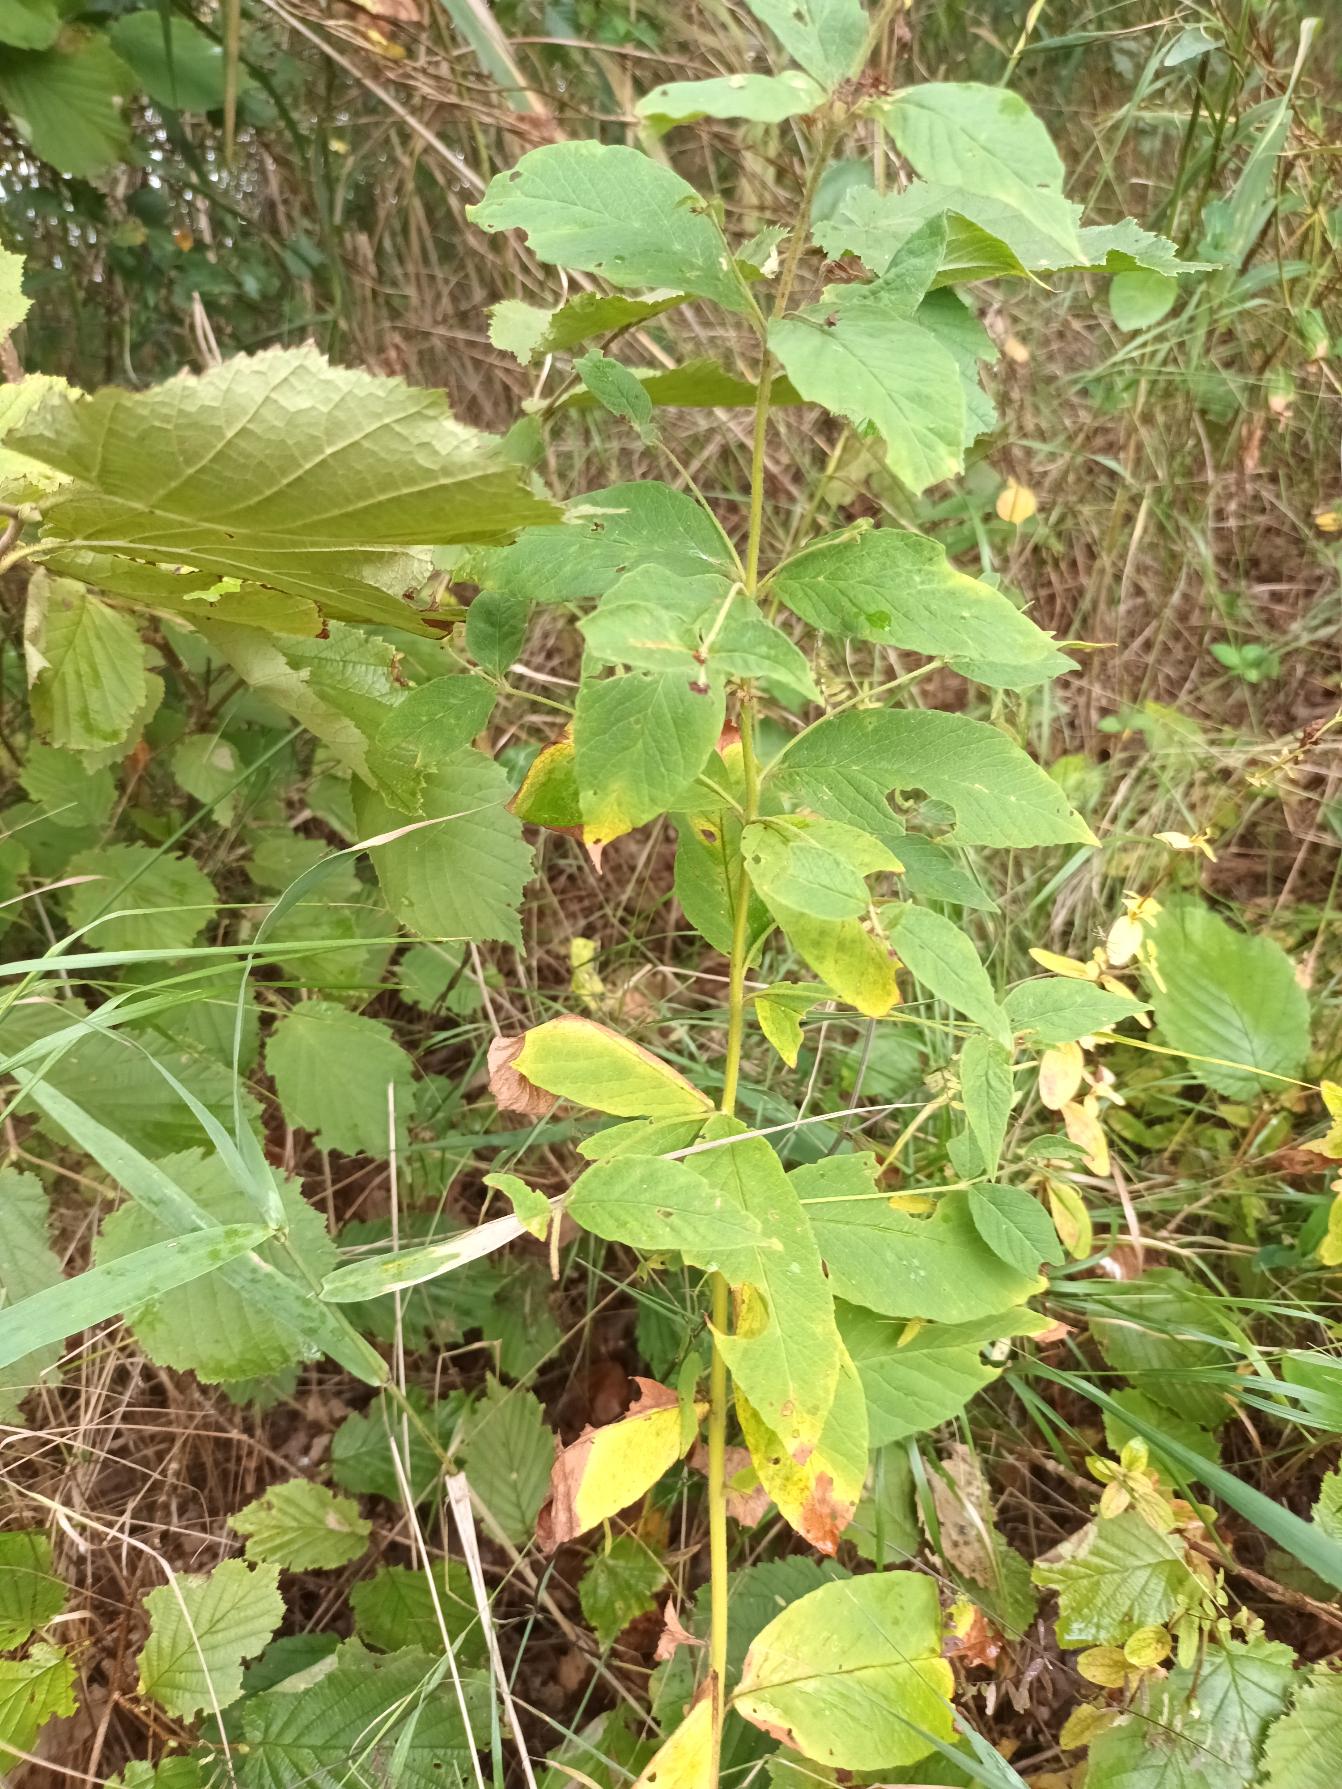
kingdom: Plantae
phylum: Tracheophyta
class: Magnoliopsida
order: Ericales
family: Primulaceae
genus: Lysimachia
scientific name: Lysimachia vulgaris
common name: Almindelig fredløs
